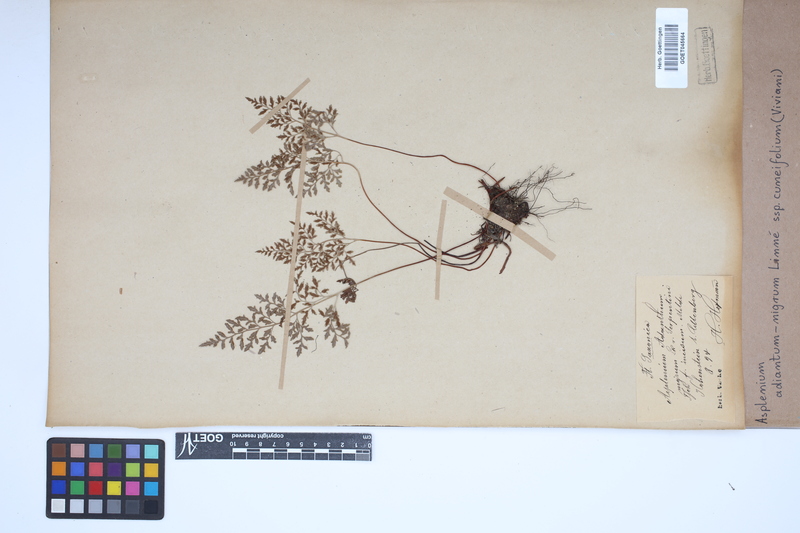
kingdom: Plantae
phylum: Tracheophyta
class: Polypodiopsida
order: Polypodiales
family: Aspleniaceae
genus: Asplenium
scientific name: Asplenium cuneifolium
